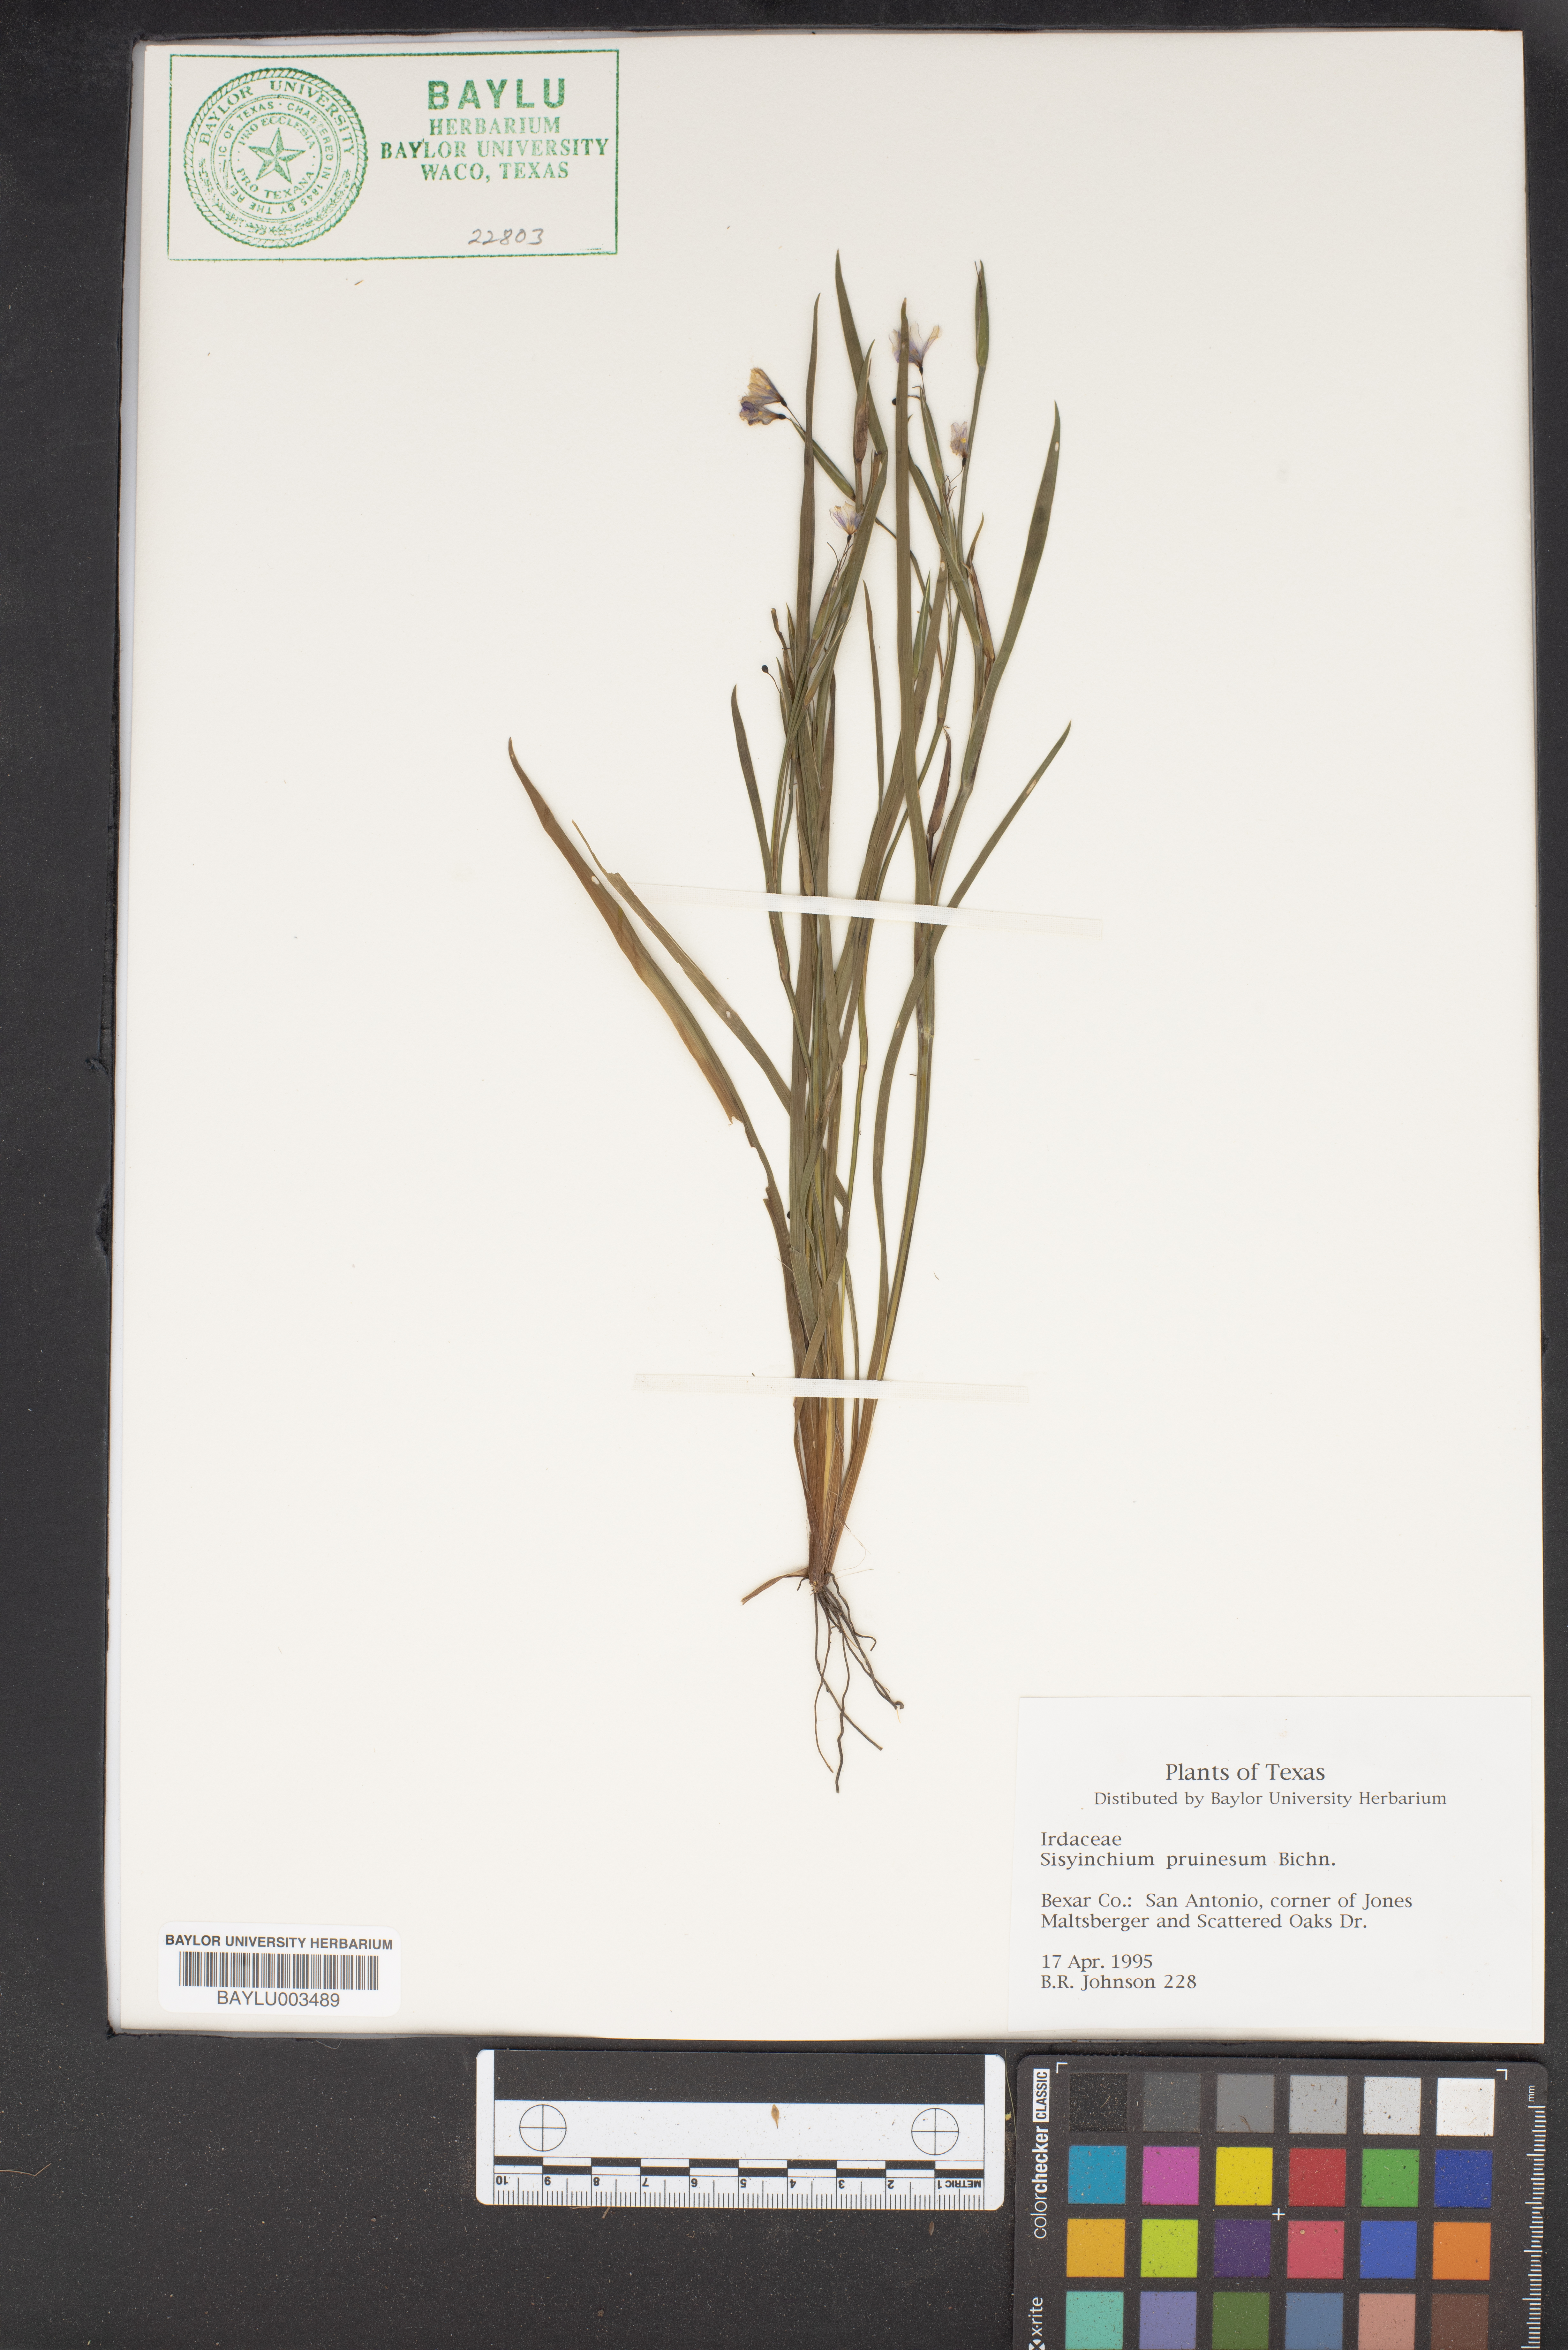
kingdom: Plantae
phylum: Tracheophyta
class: Liliopsida
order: Asparagales
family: Iridaceae
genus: Sisyrinchium
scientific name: Sisyrinchium pruinosum
